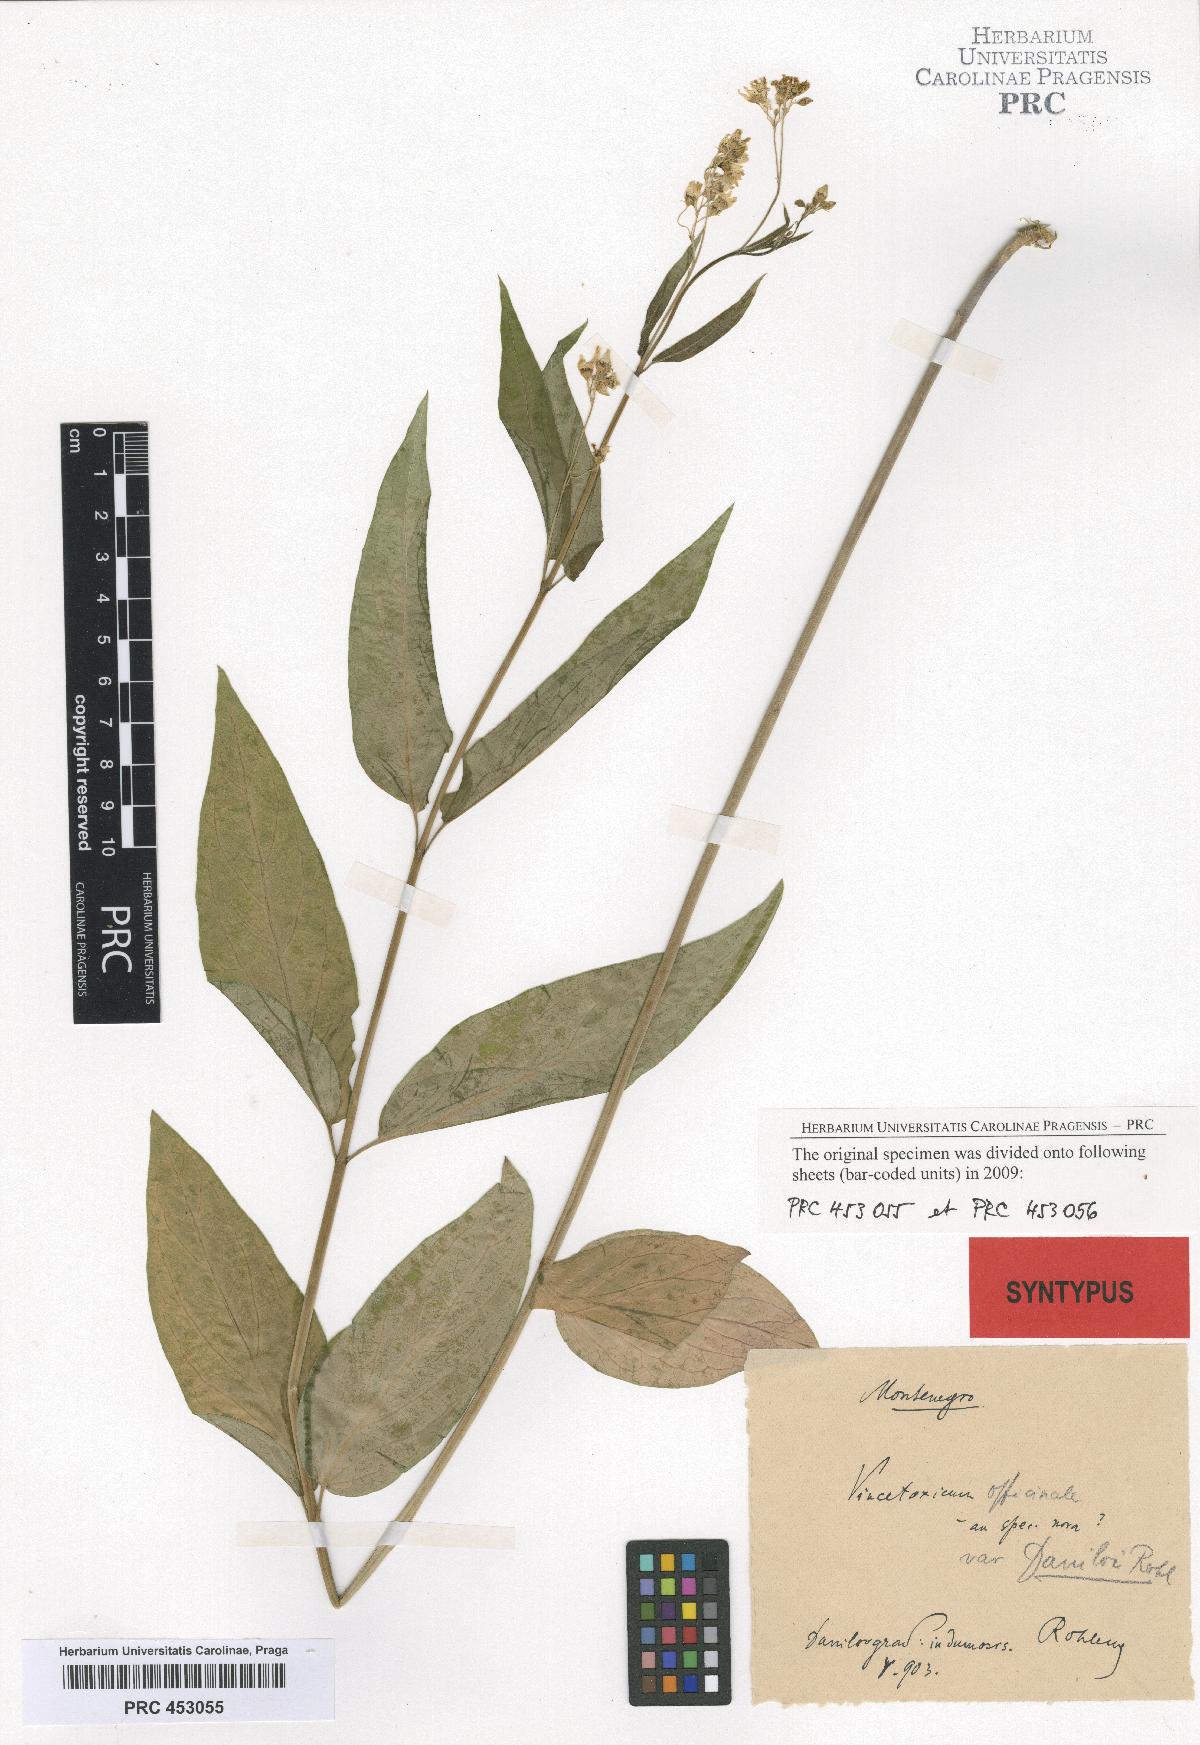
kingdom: Plantae
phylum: Tracheophyta
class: Magnoliopsida
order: Gentianales
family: Apocynaceae
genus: Vincetoxicum
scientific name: Vincetoxicum hirundinaria
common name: White swallowwort
